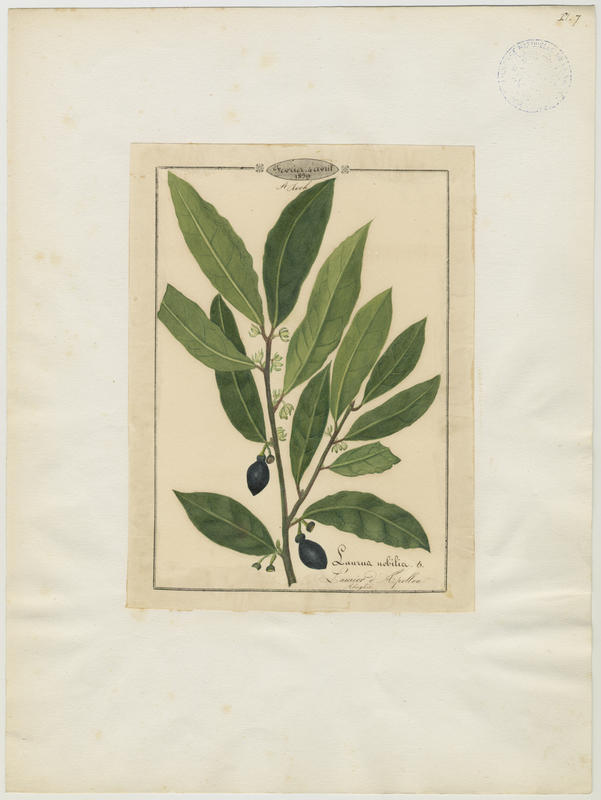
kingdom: Plantae
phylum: Tracheophyta
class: Magnoliopsida
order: Laurales
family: Lauraceae
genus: Laurus
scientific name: Laurus nobilis
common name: Bay
